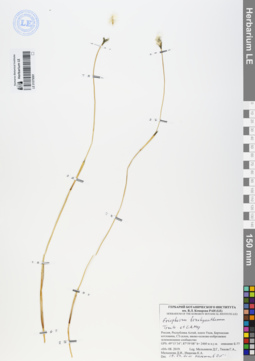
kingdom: Plantae
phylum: Tracheophyta
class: Liliopsida
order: Poales
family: Cyperaceae
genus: Eriophorum
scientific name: Eriophorum brachyantherum
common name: Closed-sheathed cottongrass
